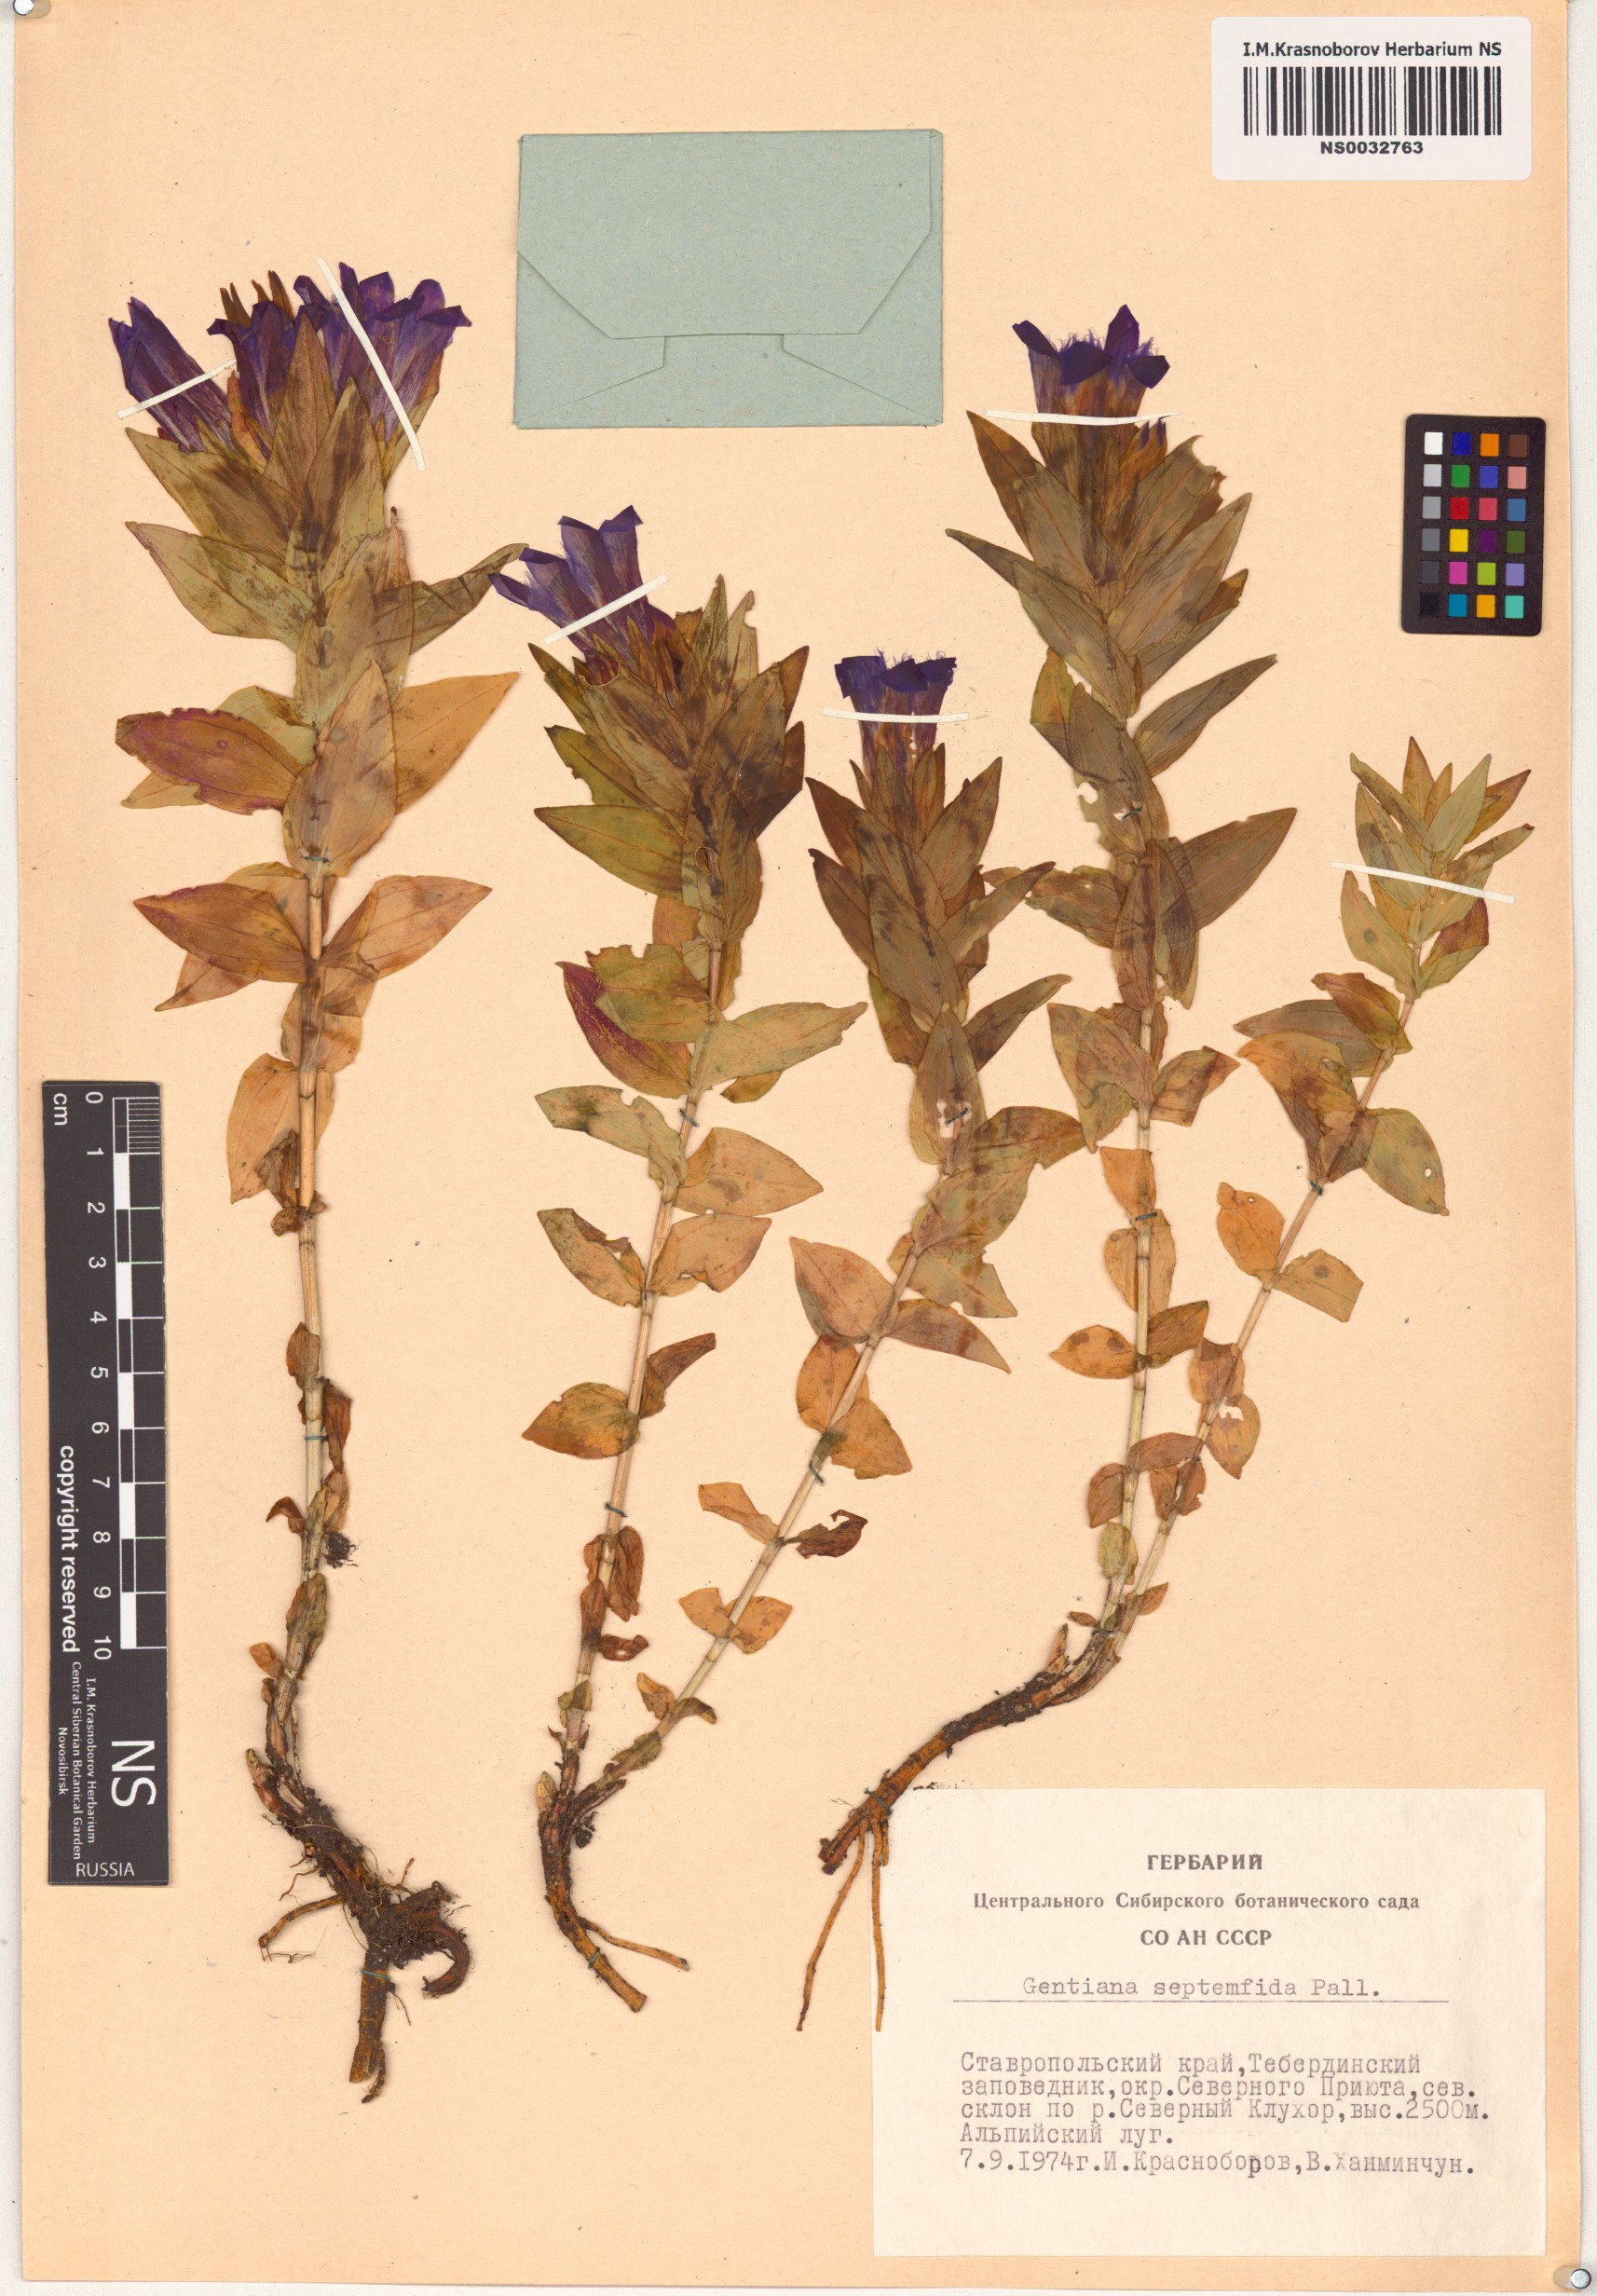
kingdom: Plantae
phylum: Tracheophyta
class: Magnoliopsida
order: Gentianales
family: Gentianaceae
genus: Gentiana
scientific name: Gentiana septemfida
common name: Crested gentian
